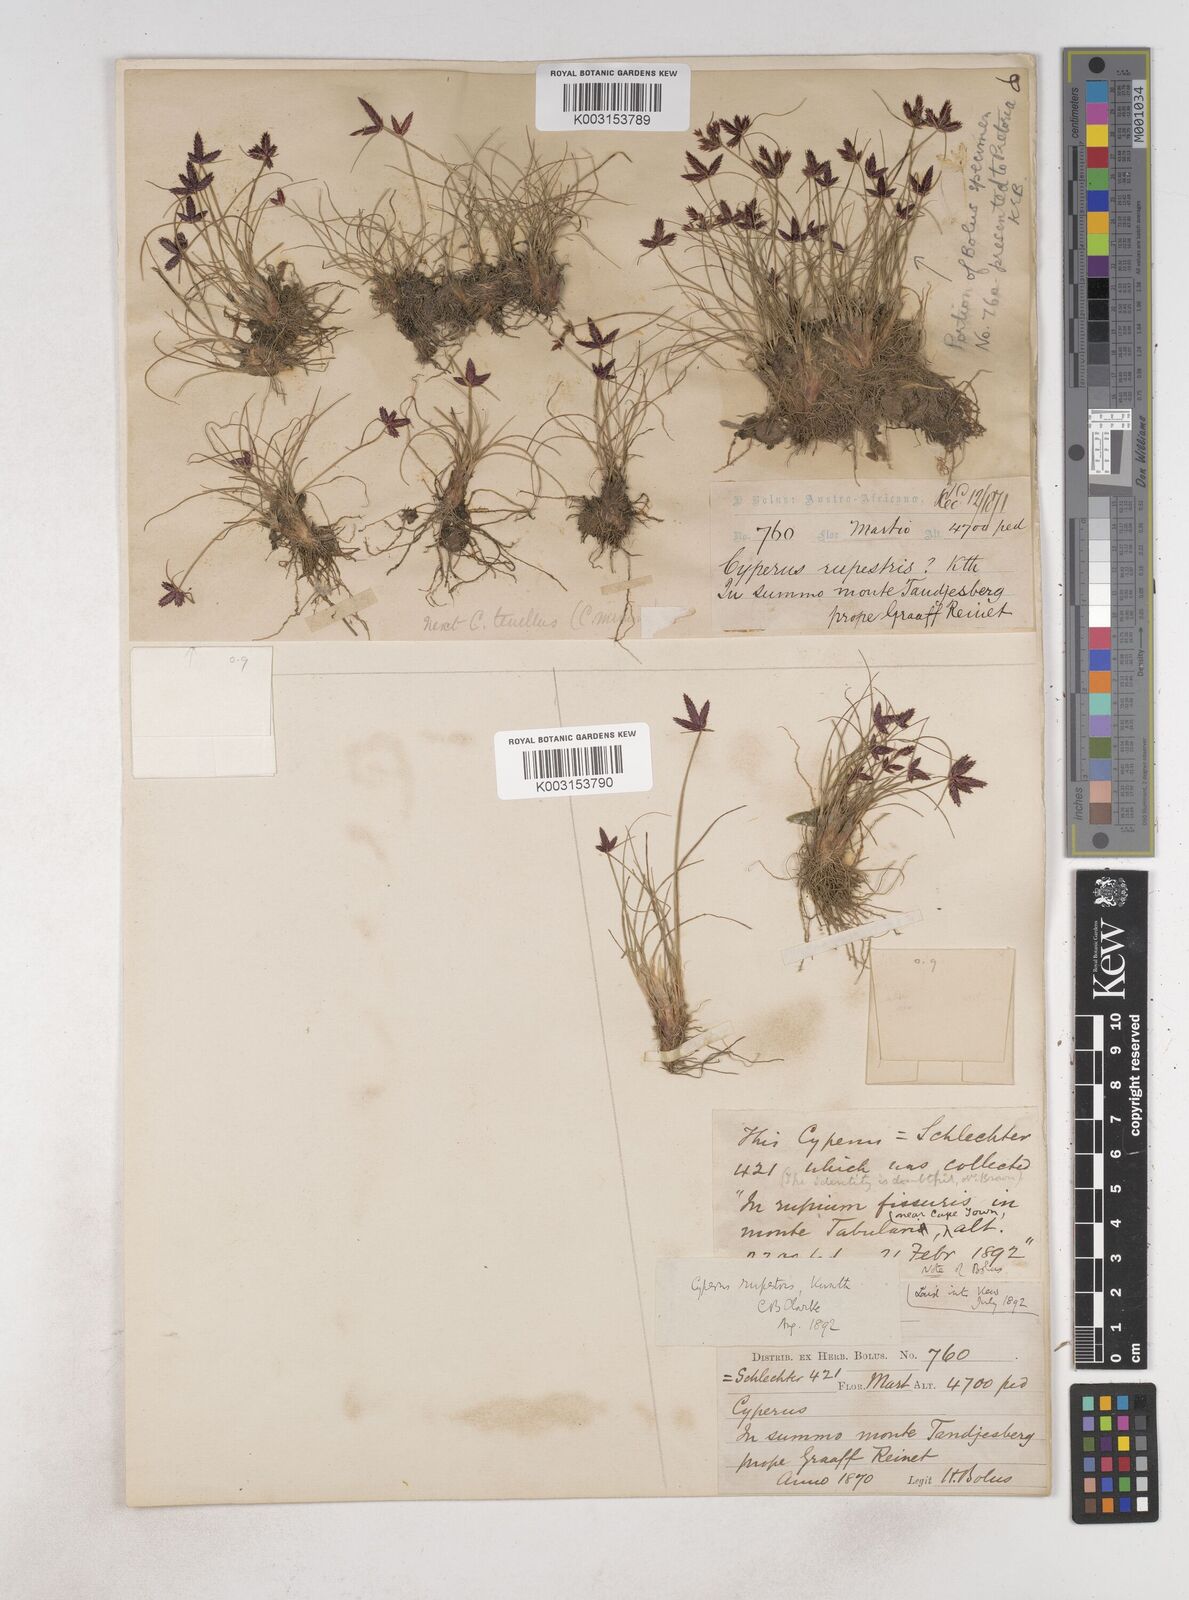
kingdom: Plantae
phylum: Tracheophyta
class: Liliopsida
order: Poales
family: Cyperaceae
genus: Cyperus
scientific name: Cyperus rupestris
